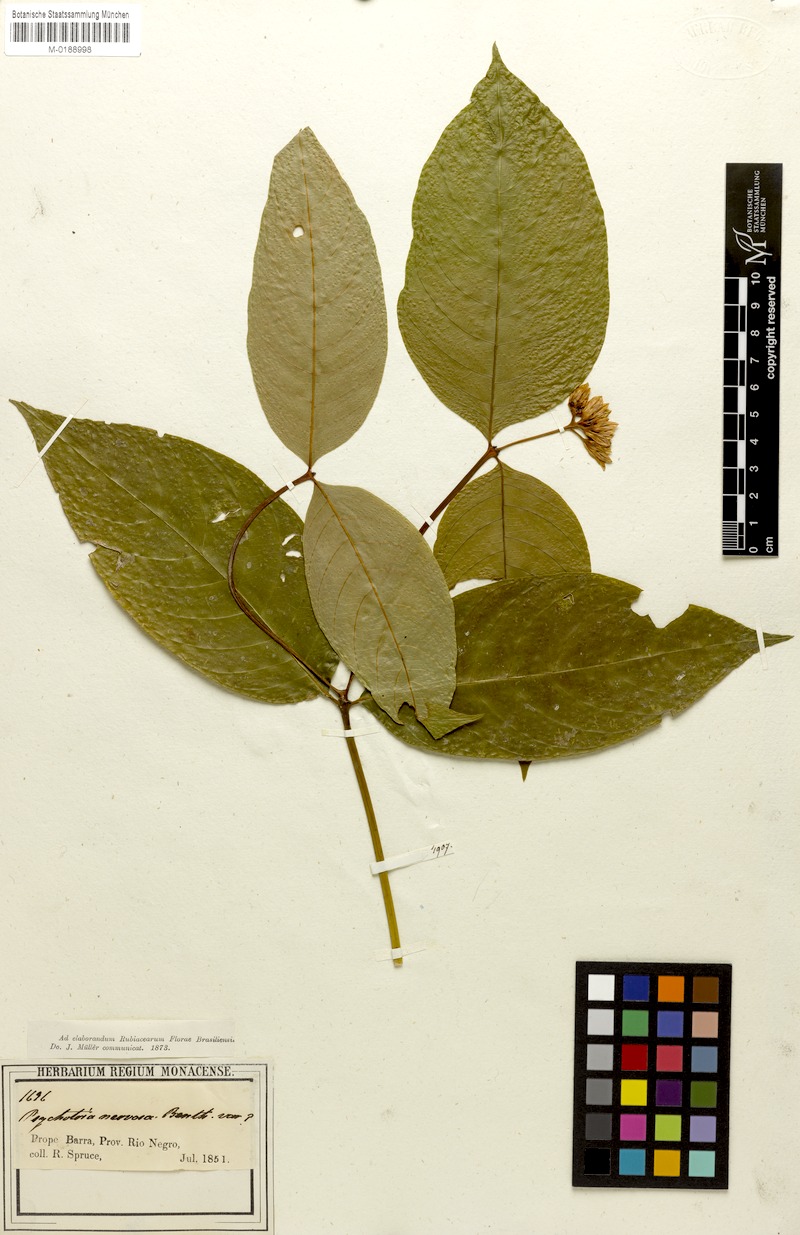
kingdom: Plantae
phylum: Tracheophyta
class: Magnoliopsida
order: Gentianales
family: Rubiaceae
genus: Palicourea
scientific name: Palicourea justiciifolia
